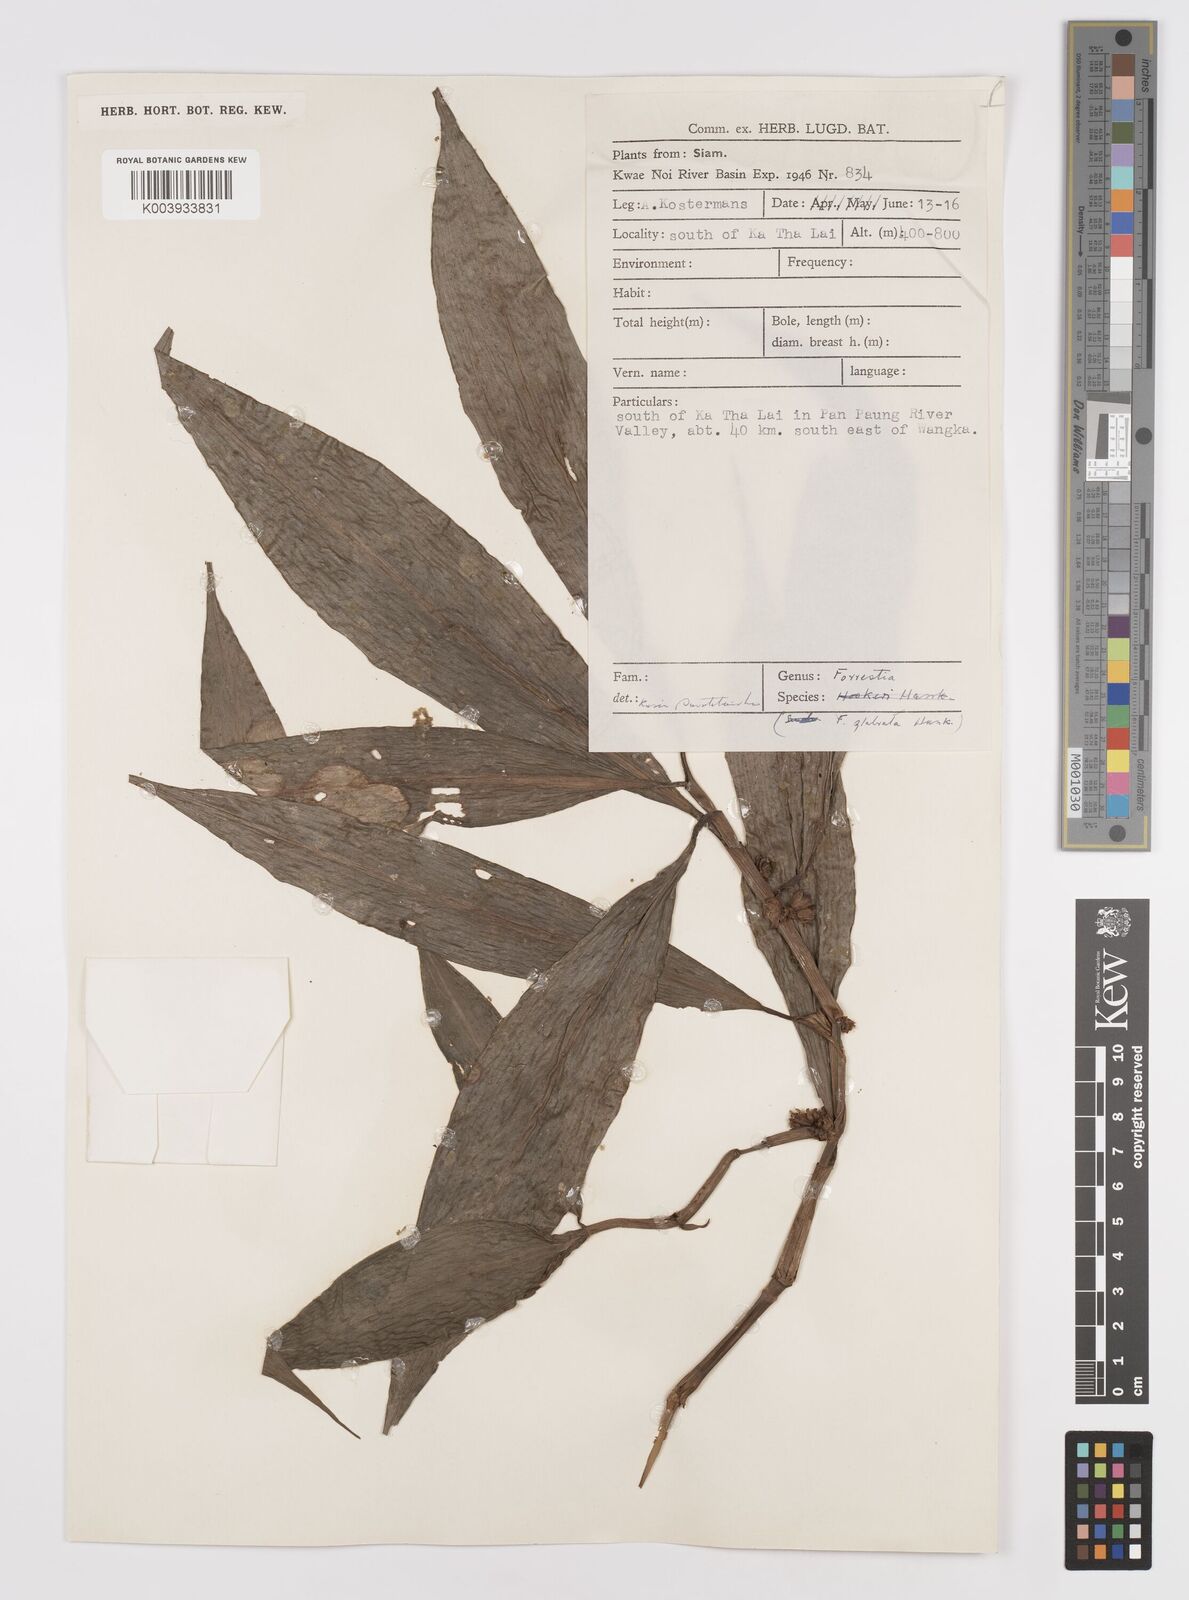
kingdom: Plantae
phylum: Tracheophyta
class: Liliopsida
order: Commelinales
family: Commelinaceae
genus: Amischotolype
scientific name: Amischotolype glabrata
